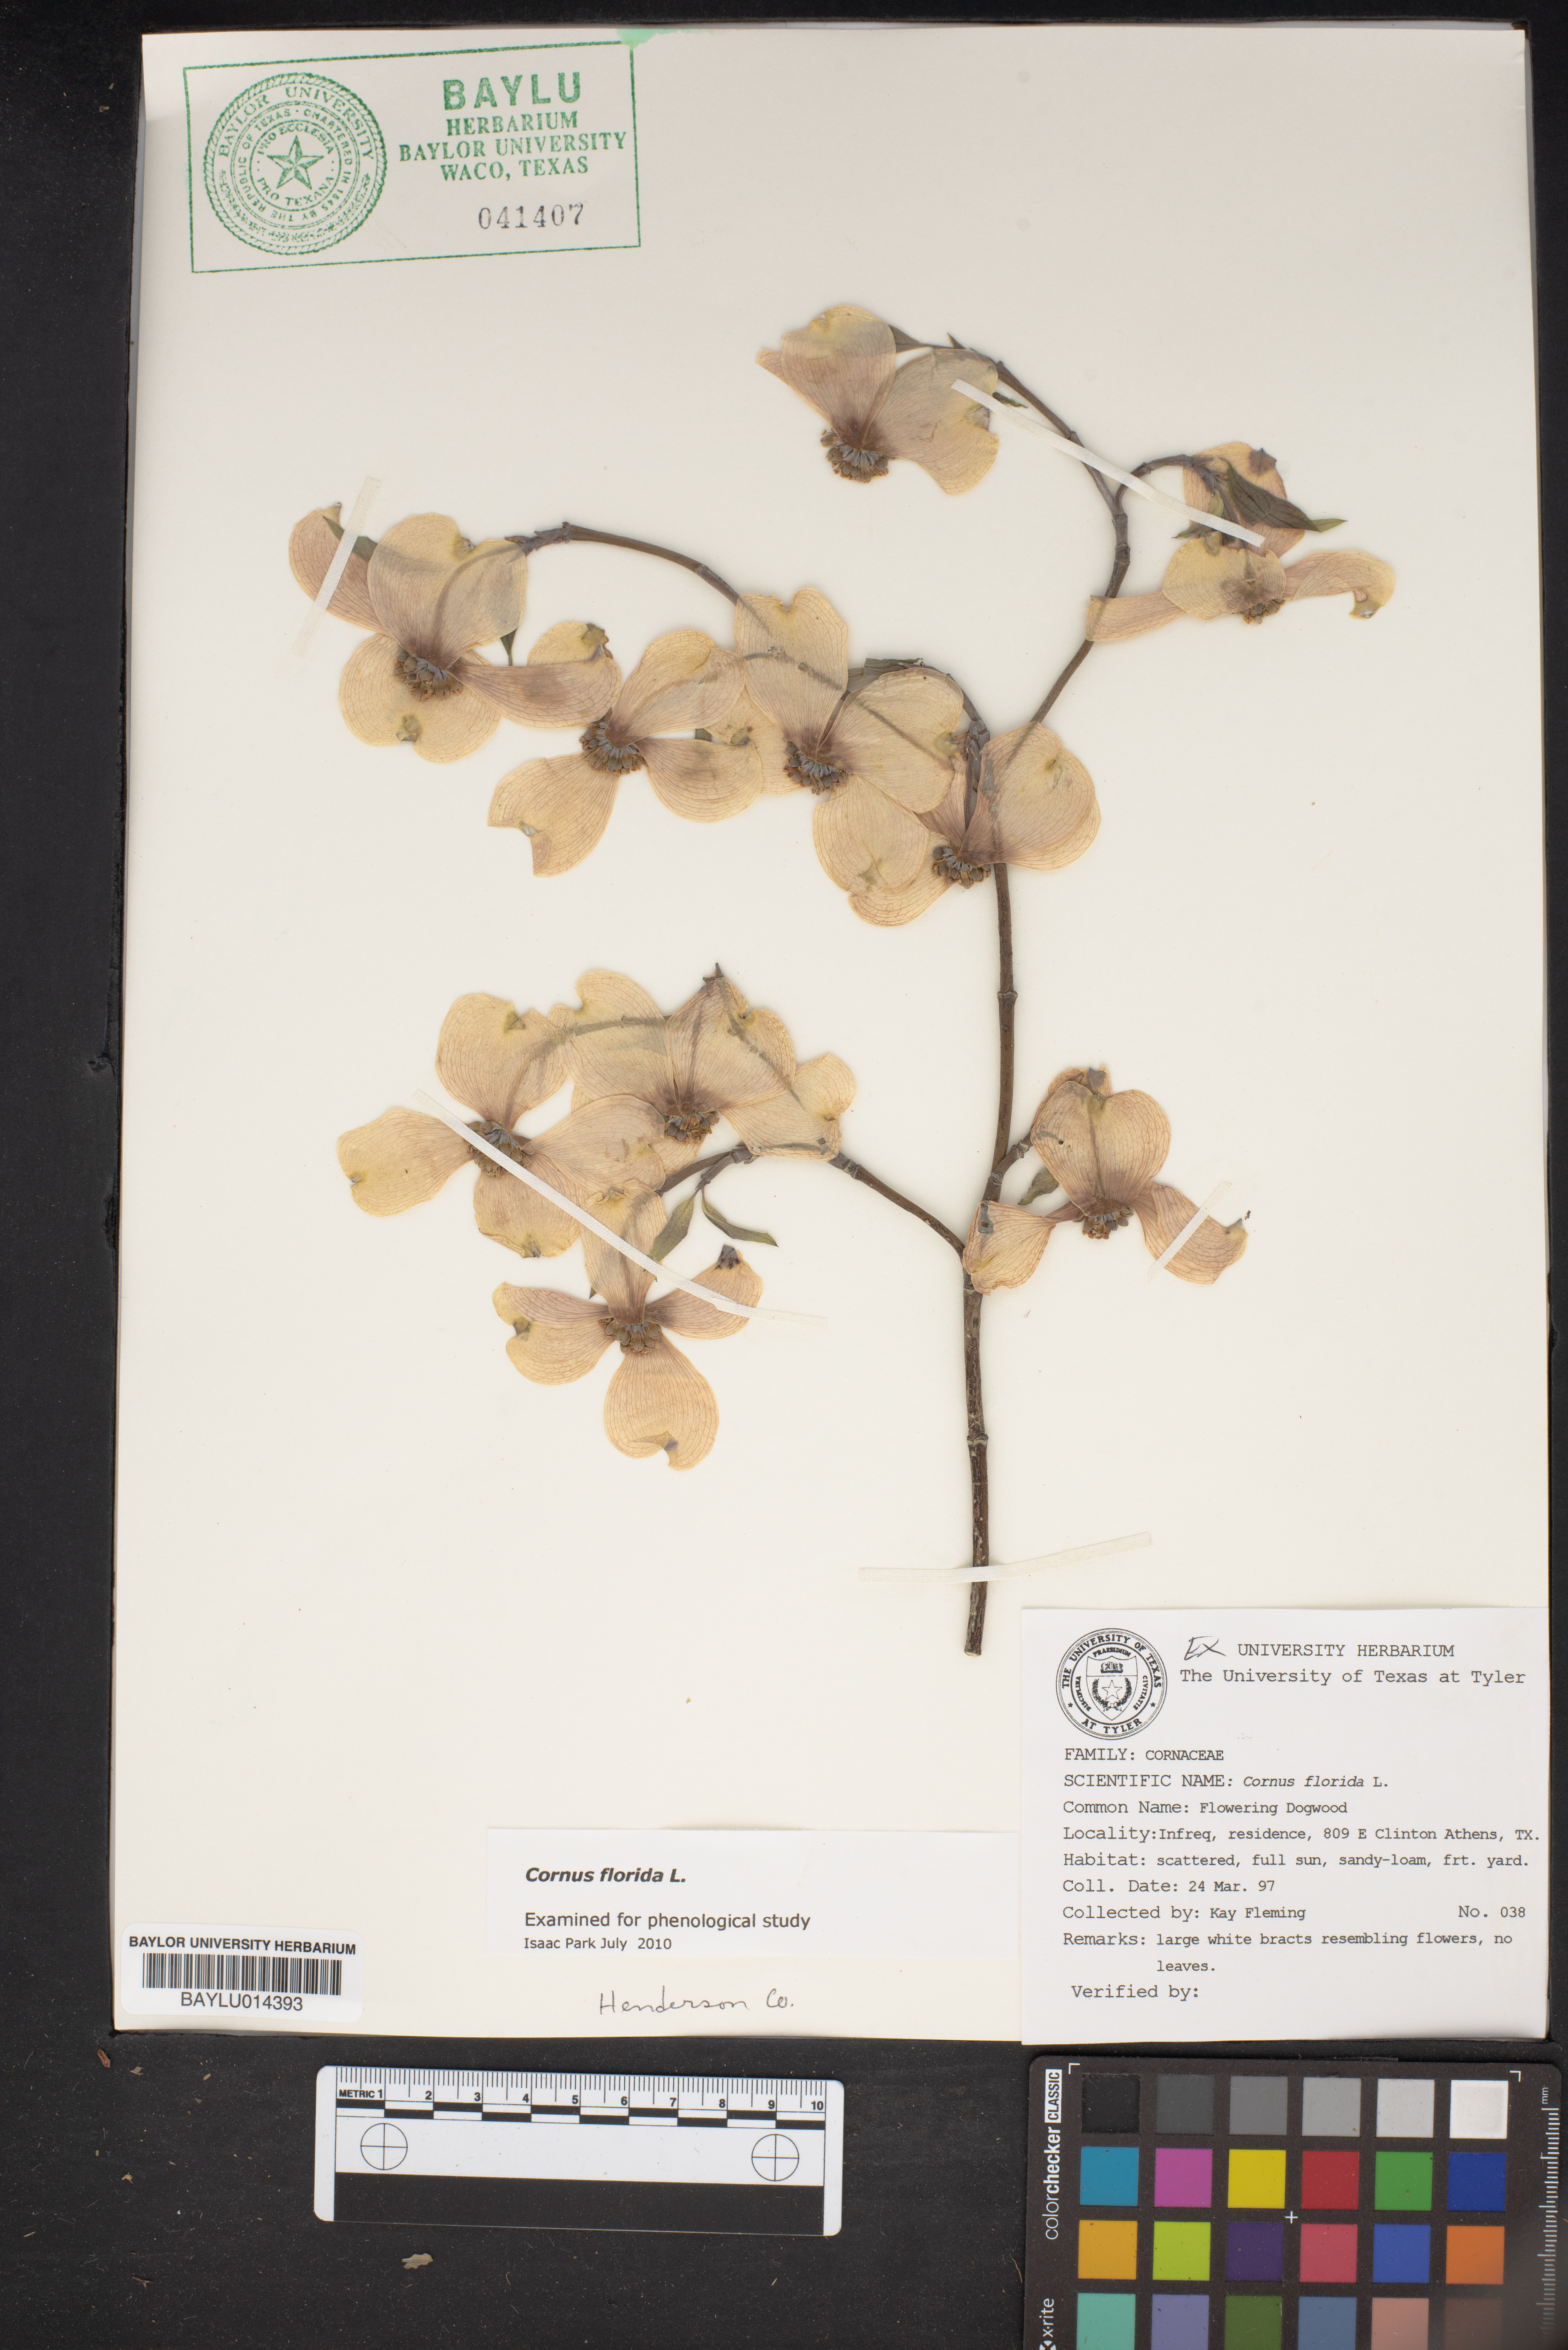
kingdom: Plantae
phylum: Tracheophyta
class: Magnoliopsida
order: Cornales
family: Cornaceae
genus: Cornus
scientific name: Cornus florida
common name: Flowering dogwood
